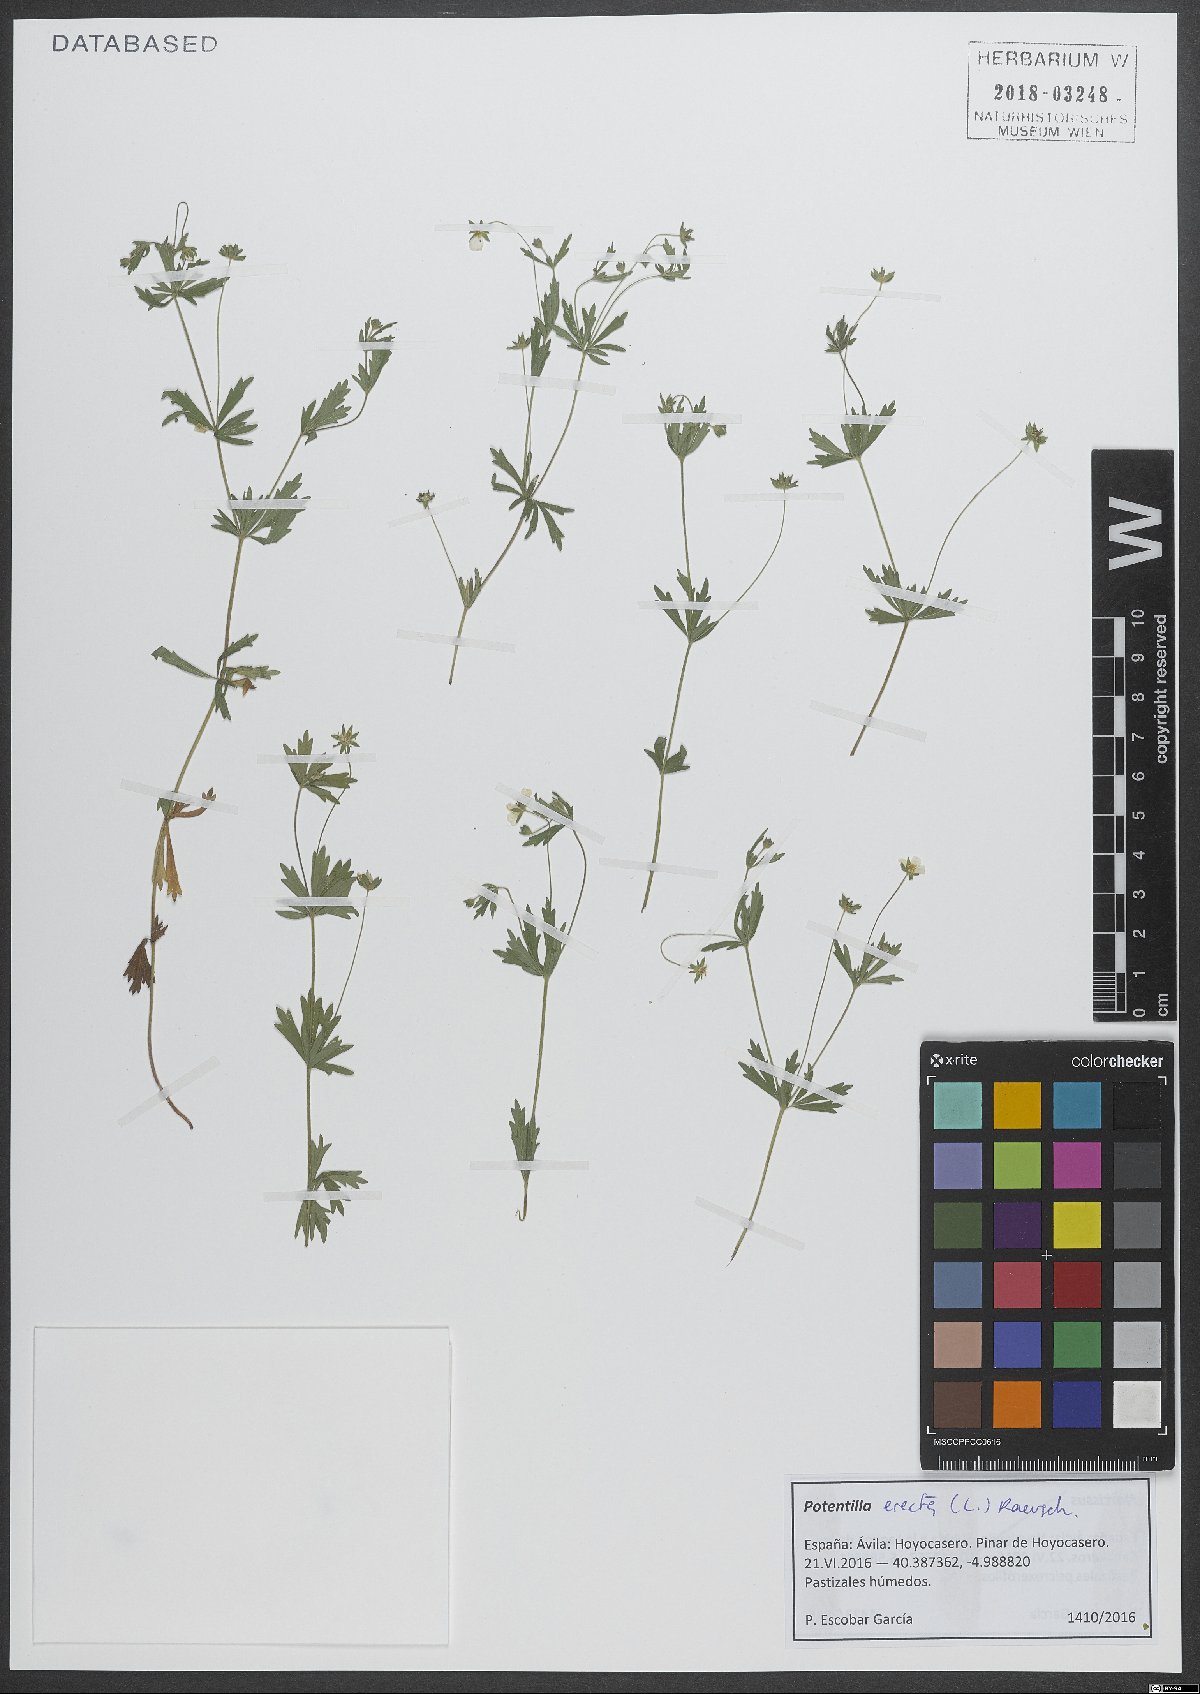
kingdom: Plantae
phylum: Tracheophyta
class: Magnoliopsida
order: Rosales
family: Rosaceae
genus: Potentilla
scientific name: Potentilla erecta
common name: Tormentil
